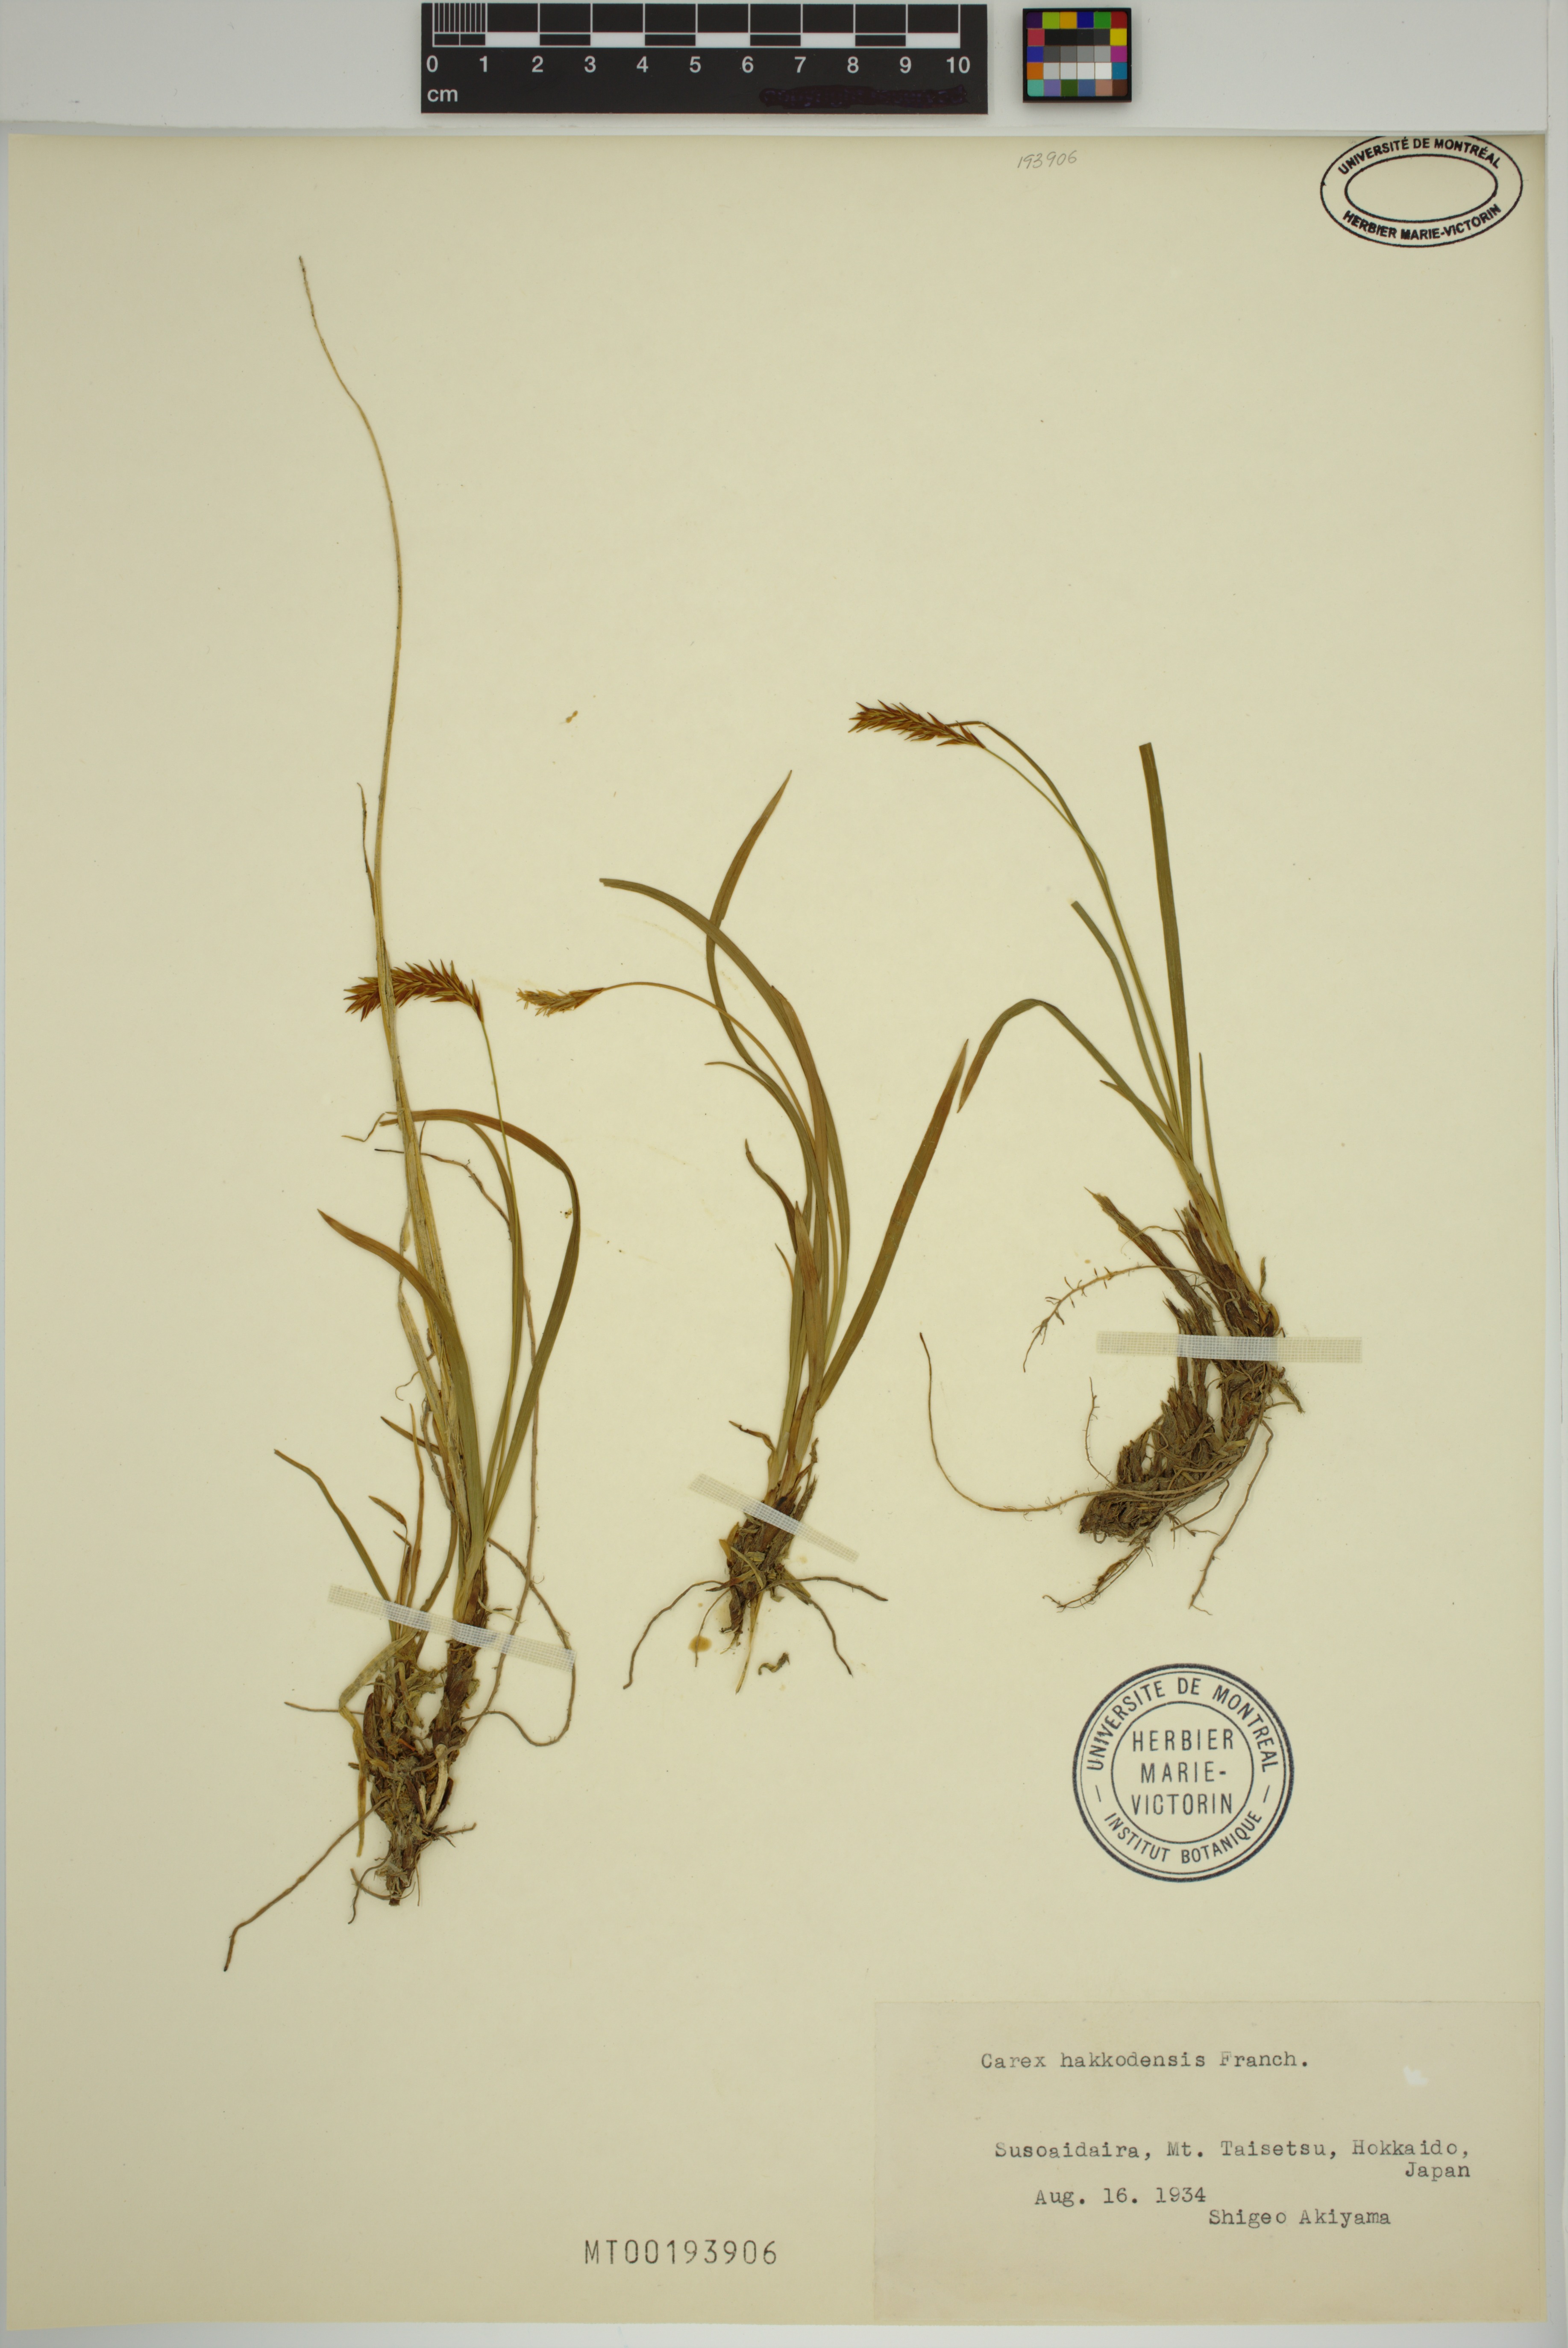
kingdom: Plantae
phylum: Tracheophyta
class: Liliopsida
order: Poales
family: Cyperaceae
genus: Carex
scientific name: Carex hakkodensis
